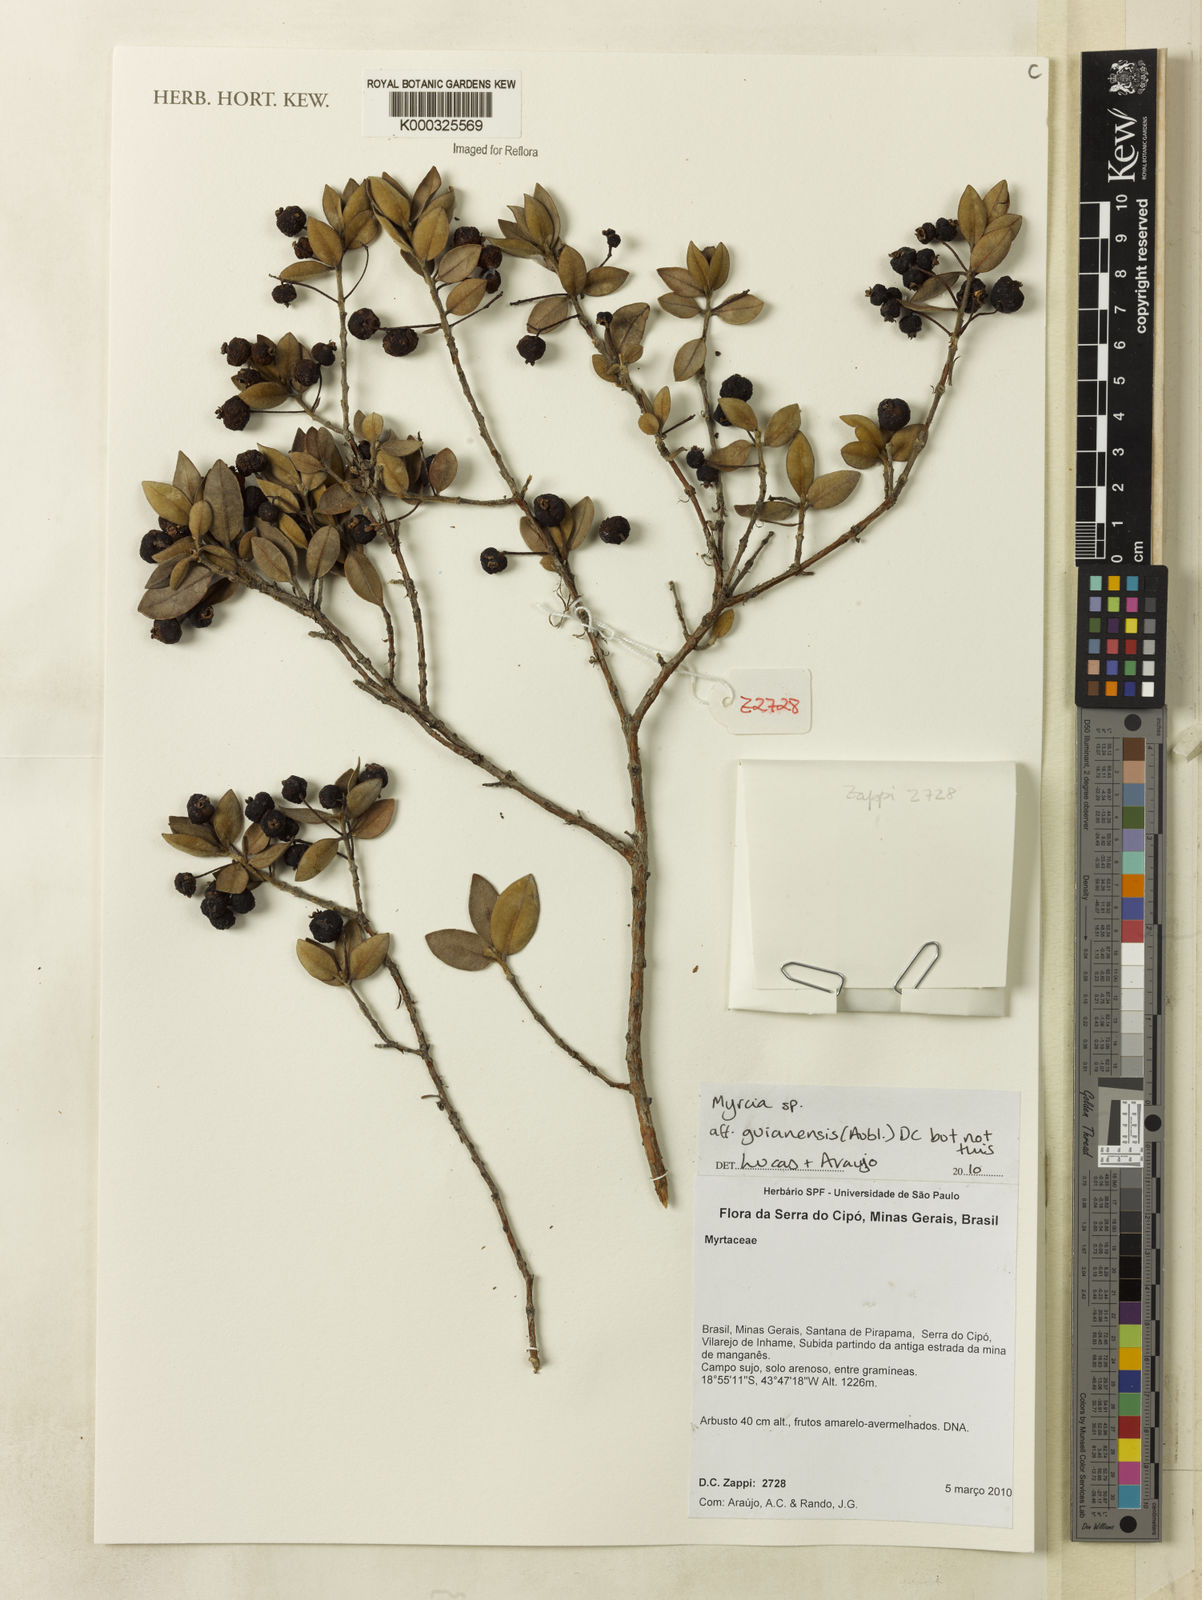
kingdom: Plantae
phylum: Tracheophyta
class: Magnoliopsida
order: Myrtales
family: Myrtaceae
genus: Myrcia
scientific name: Myrcia guianensis
